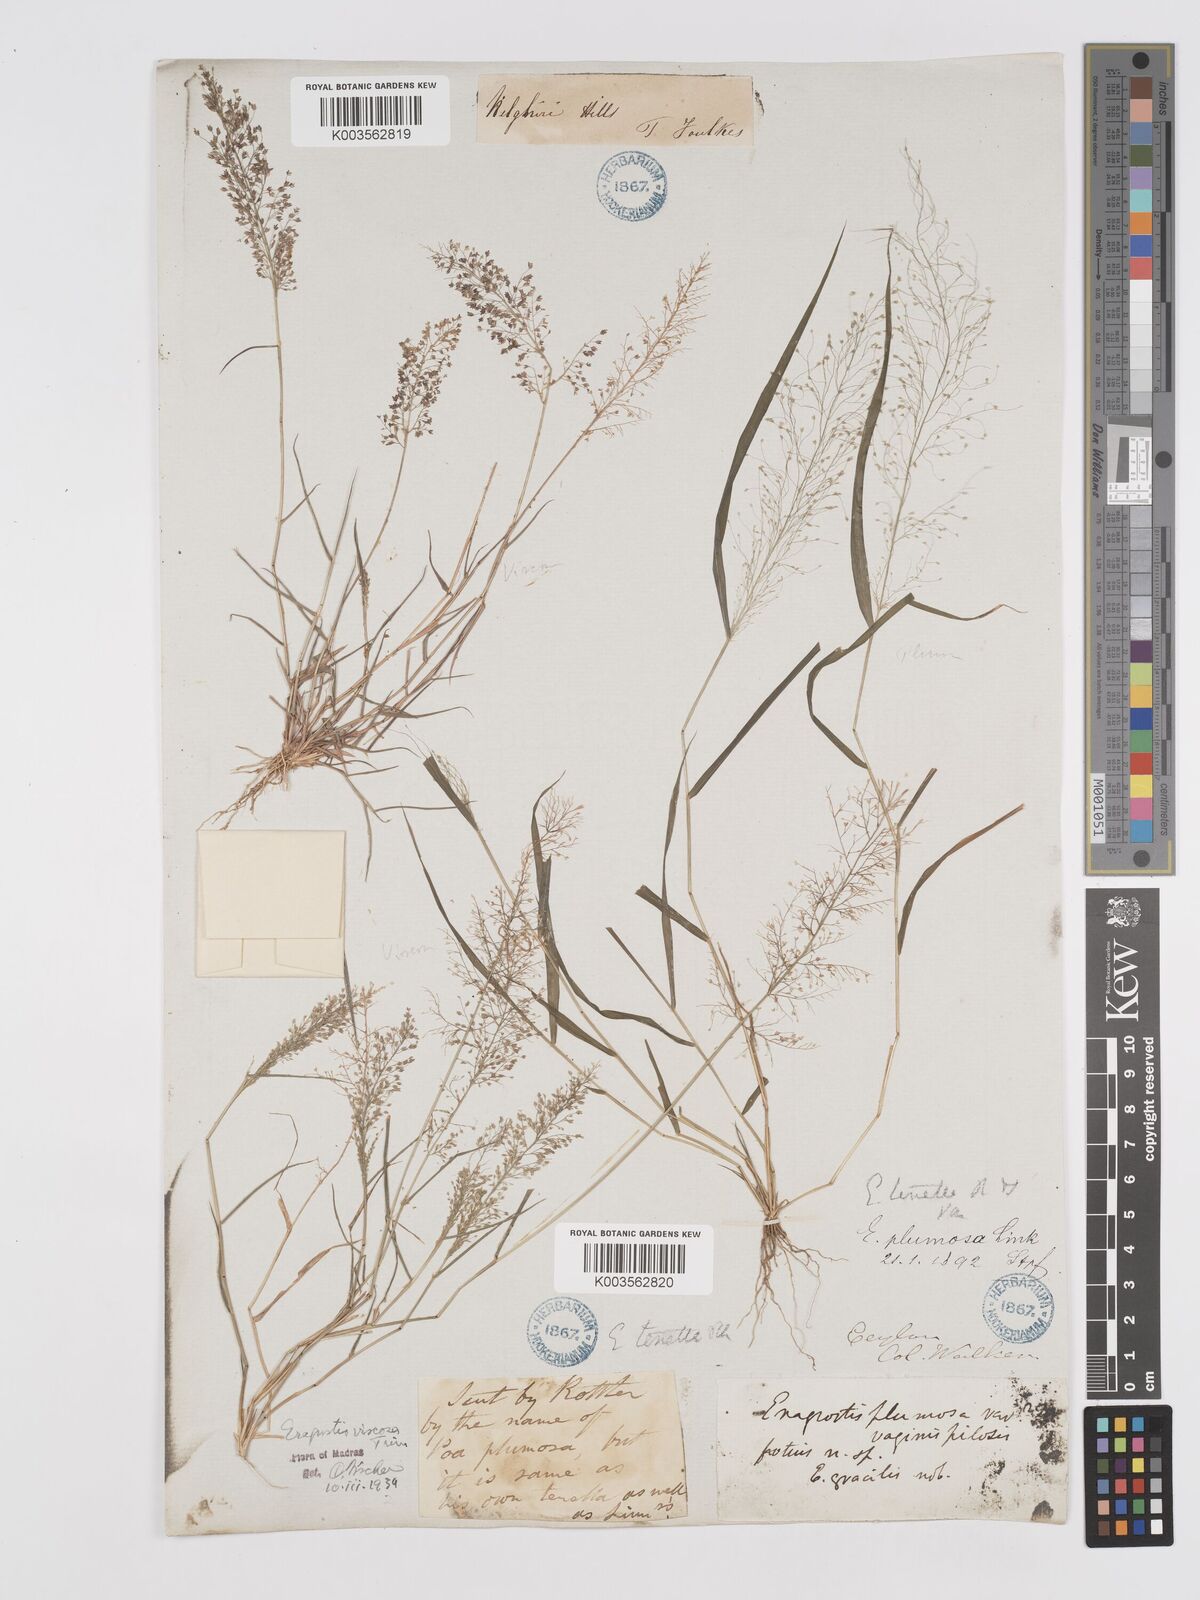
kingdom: Plantae
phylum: Tracheophyta
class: Liliopsida
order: Poales
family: Poaceae
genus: Eragrostis
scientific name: Eragrostis viscosa
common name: Sticky love grass
